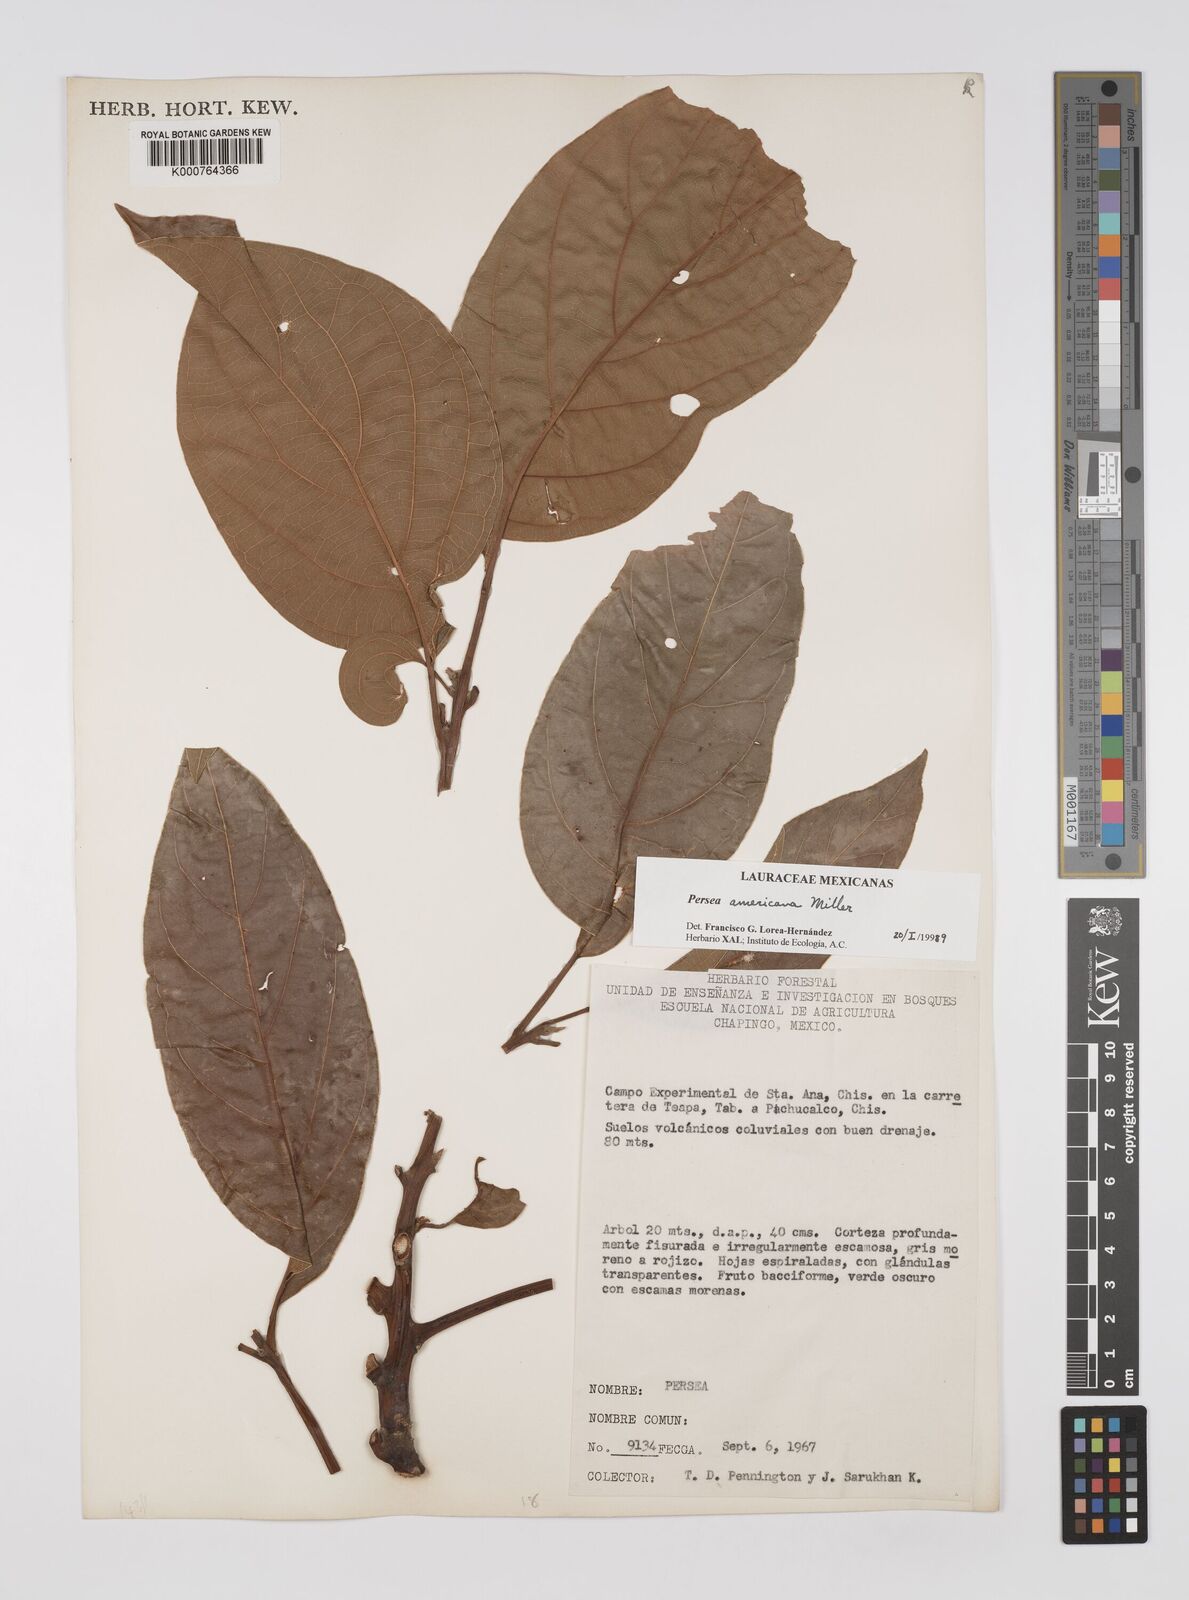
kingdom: Plantae
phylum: Tracheophyta
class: Magnoliopsida
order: Laurales
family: Lauraceae
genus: Persea
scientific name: Persea americana
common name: Avocado
